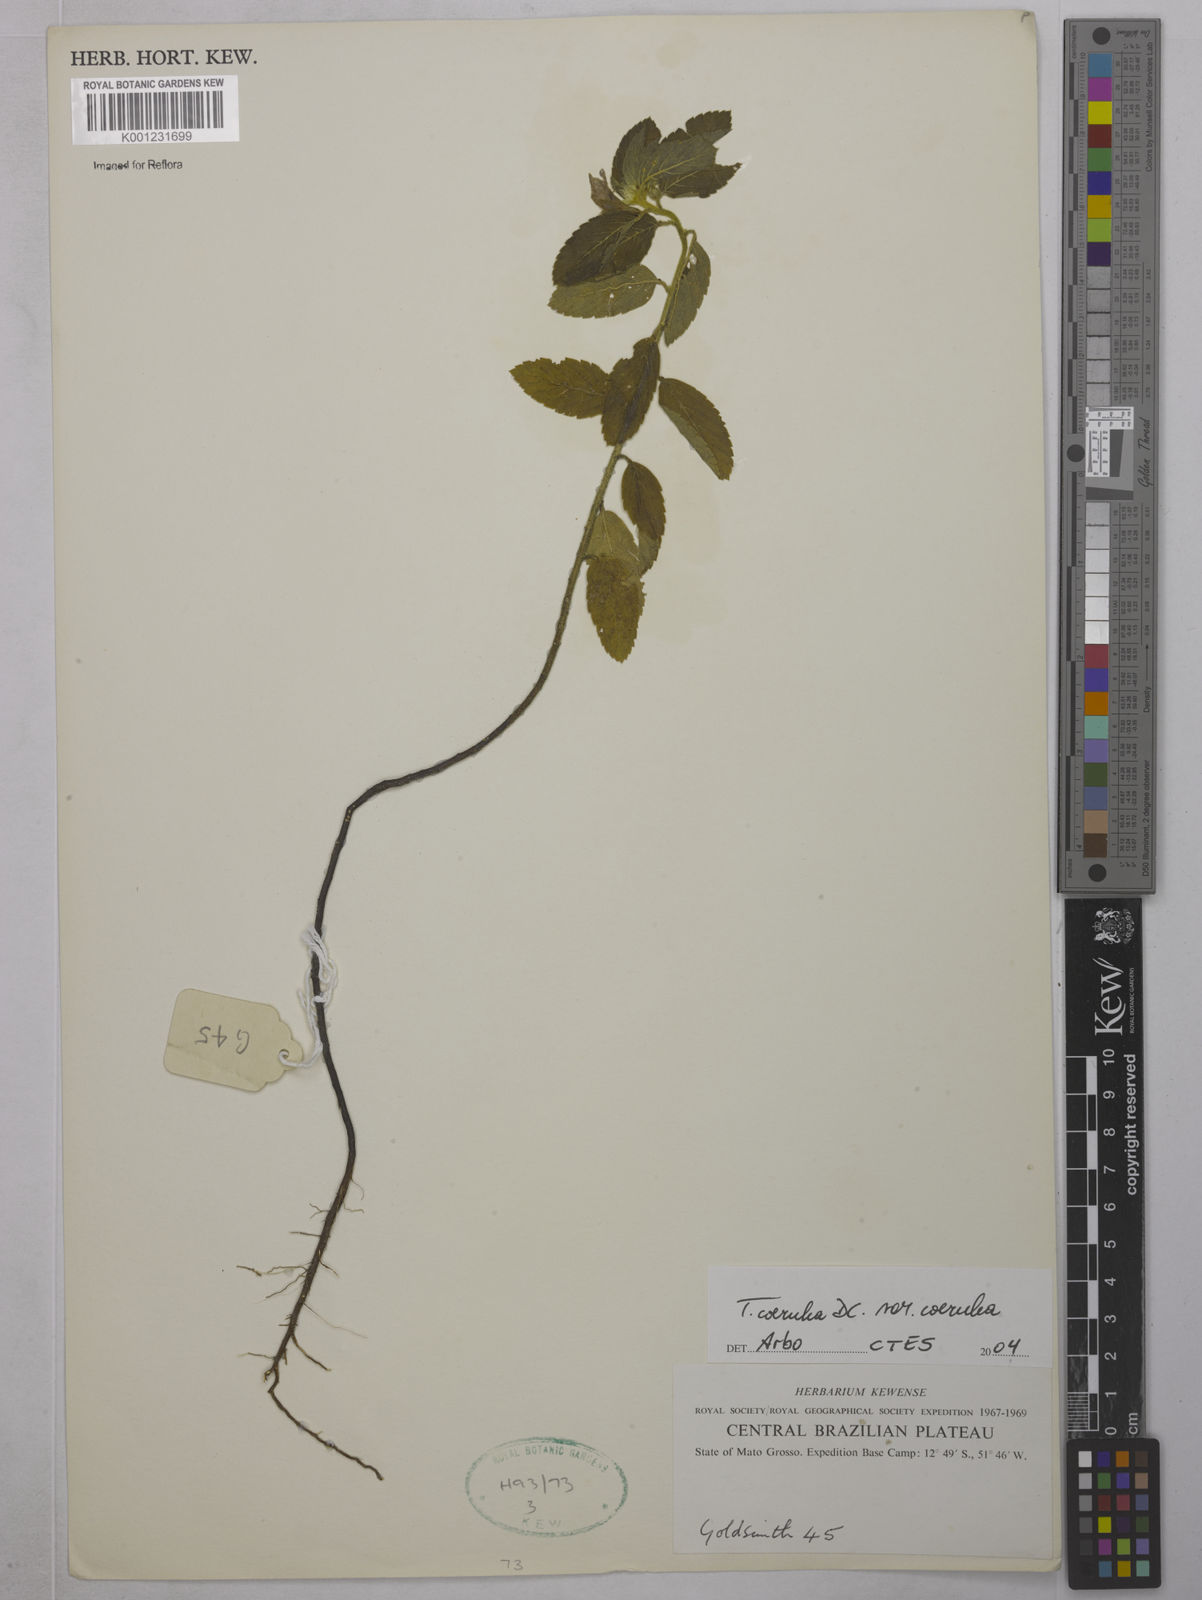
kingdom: Plantae
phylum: Tracheophyta
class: Magnoliopsida
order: Malpighiales
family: Turneraceae
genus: Turnera
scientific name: Turnera
